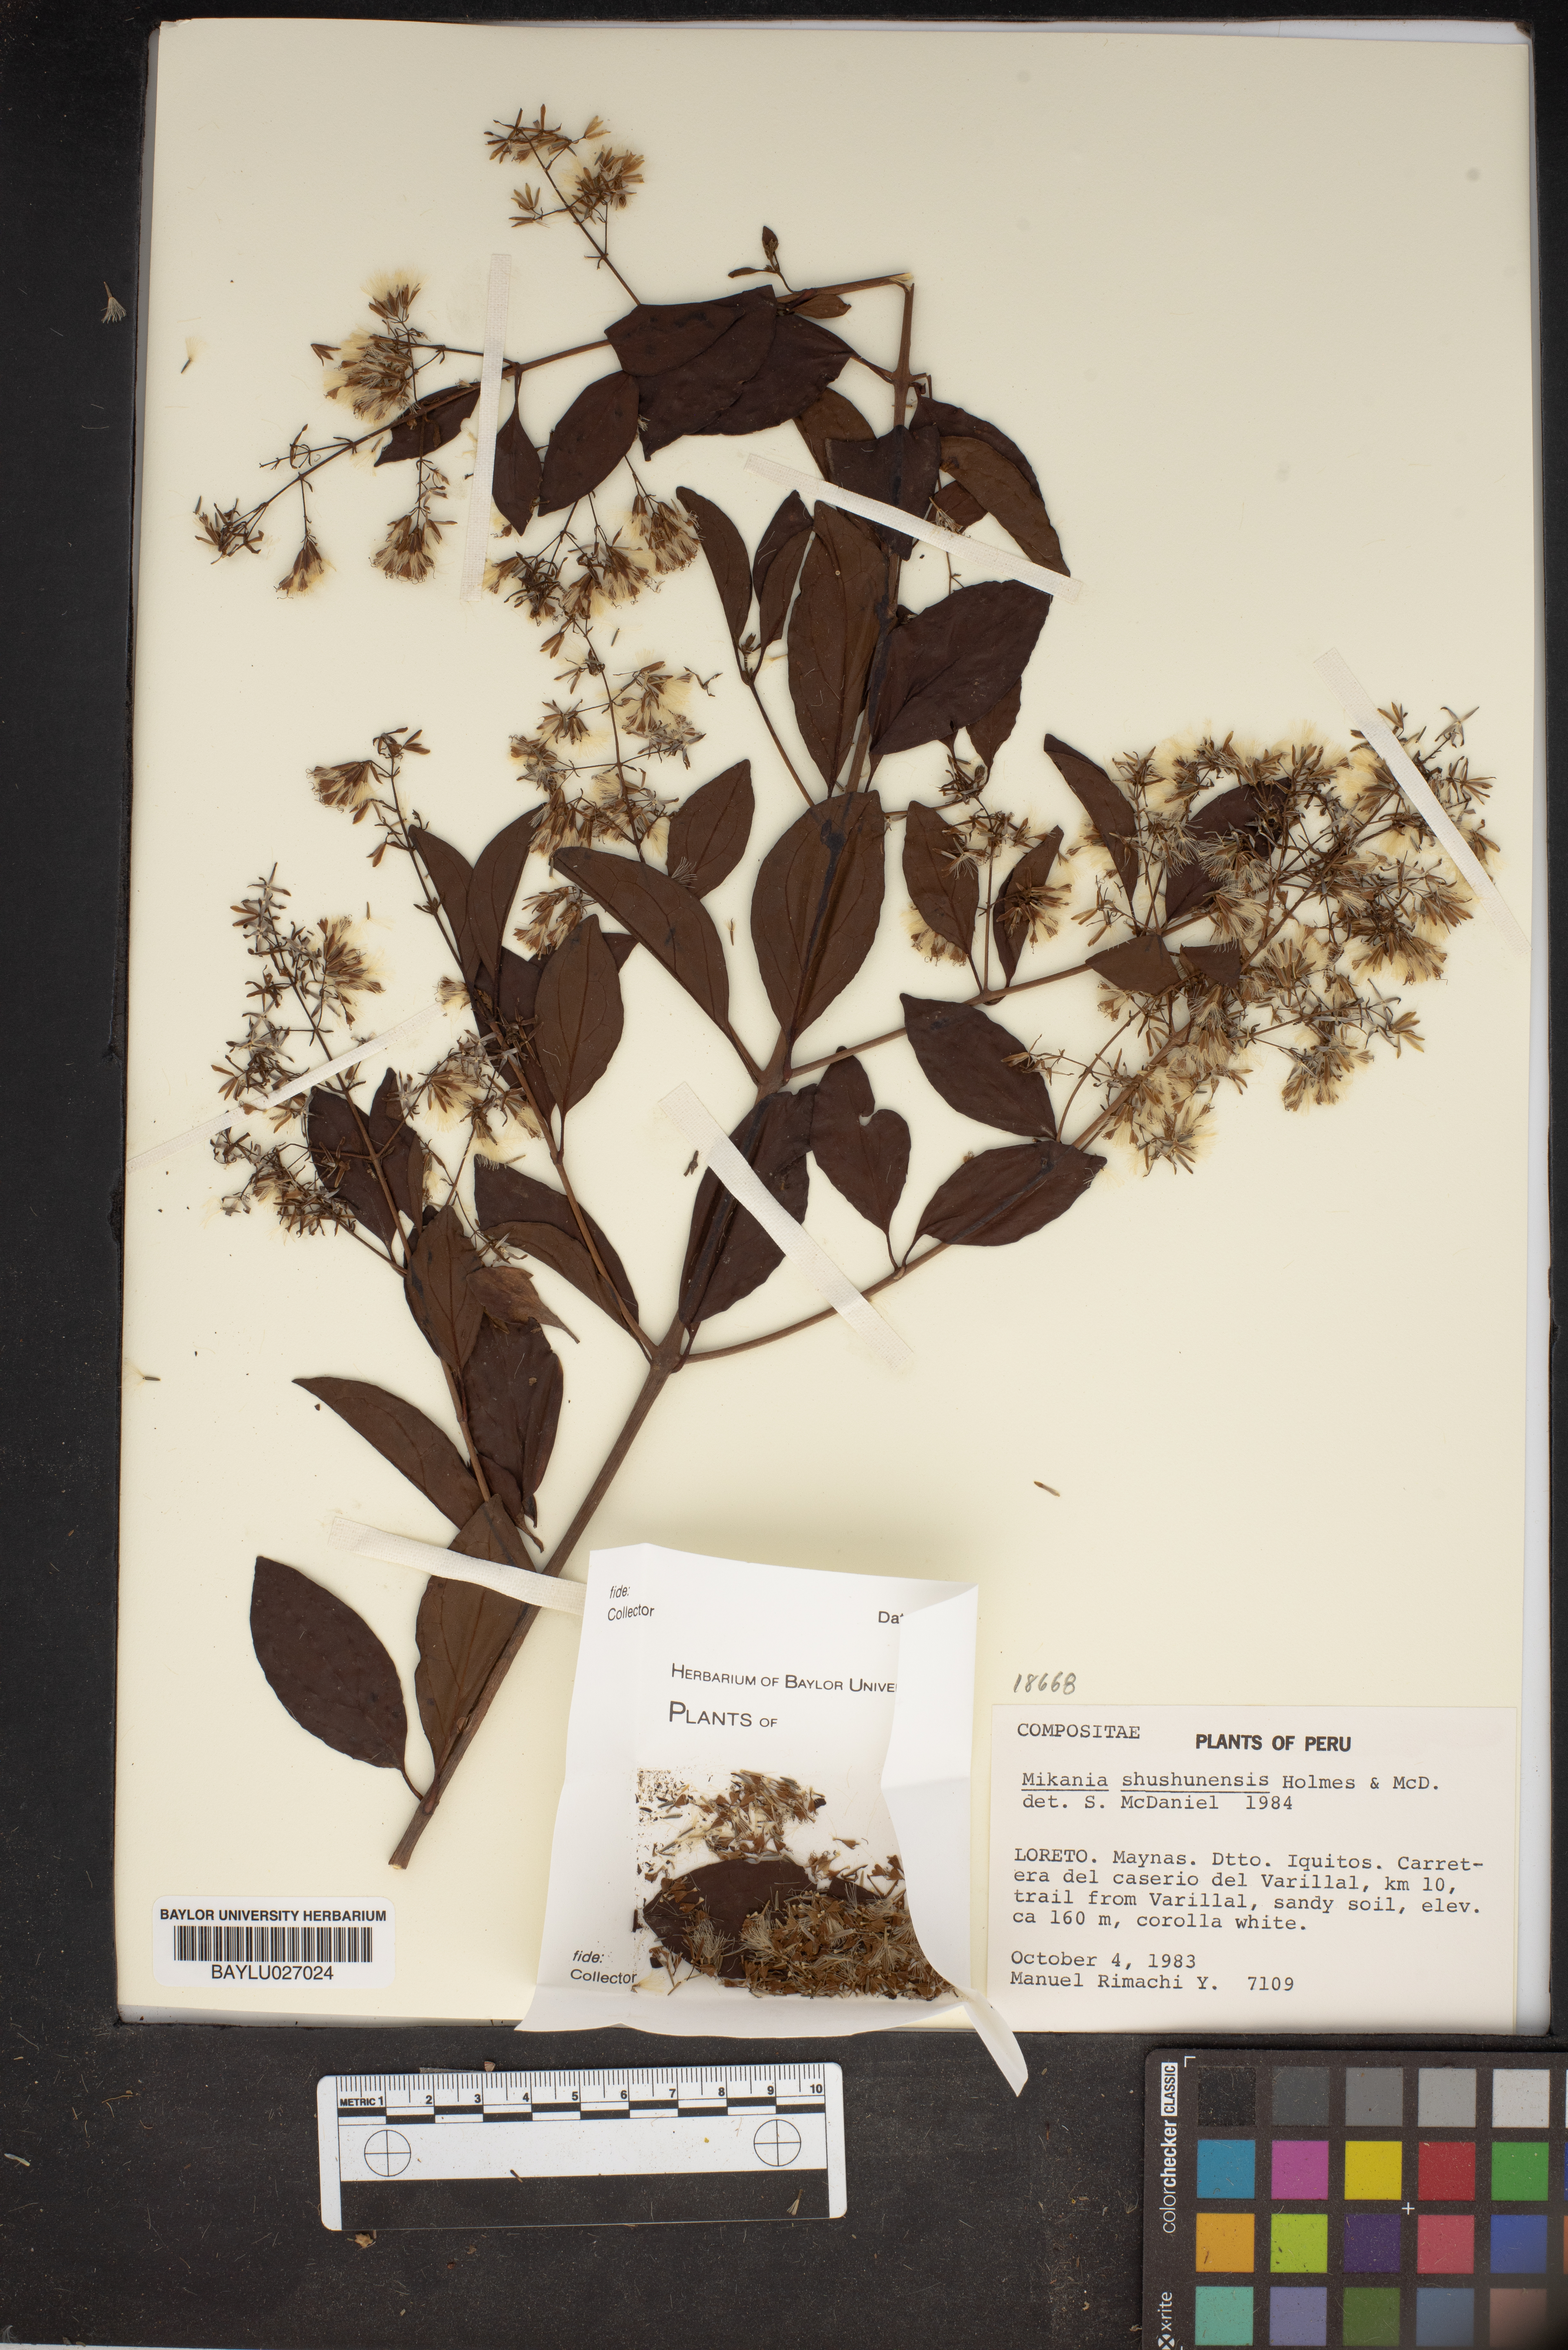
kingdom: Plantae
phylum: Tracheophyta
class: Magnoliopsida
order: Asterales
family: Asteraceae
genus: Mikania
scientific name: Mikania shushunensis
